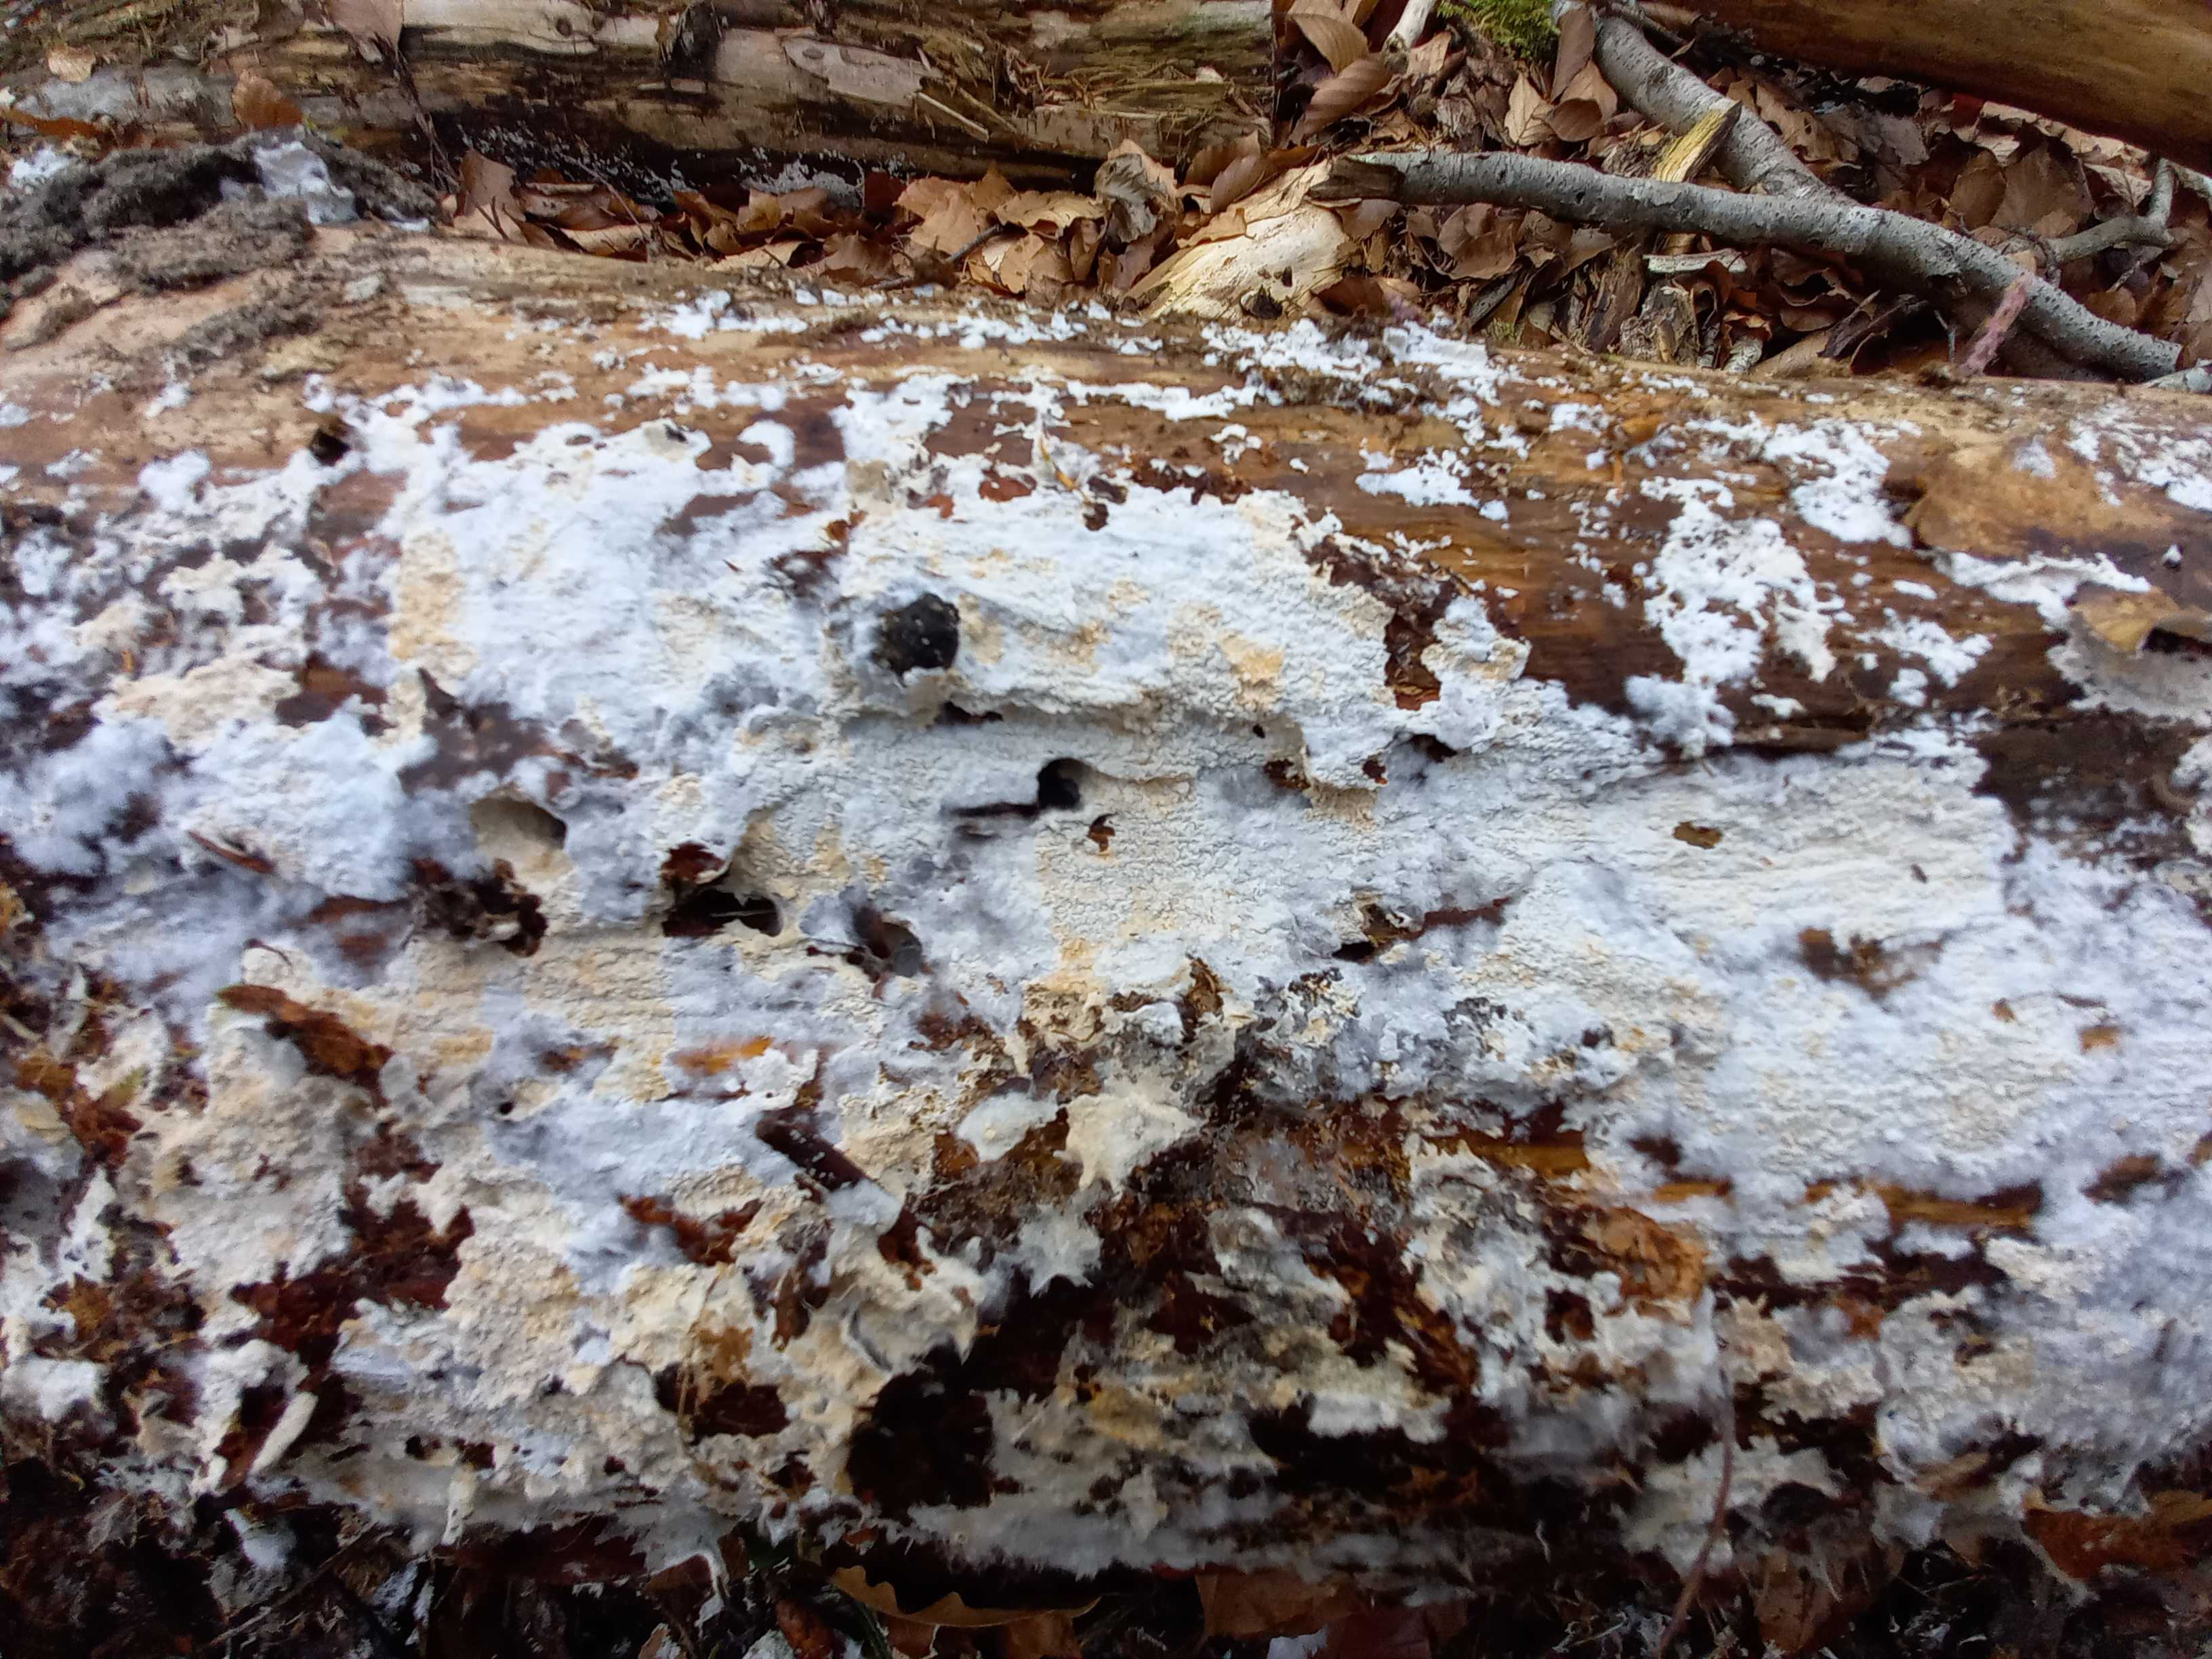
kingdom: Fungi
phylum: Basidiomycota
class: Agaricomycetes
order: Corticiales
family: Corticiaceae
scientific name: Corticiaceae
